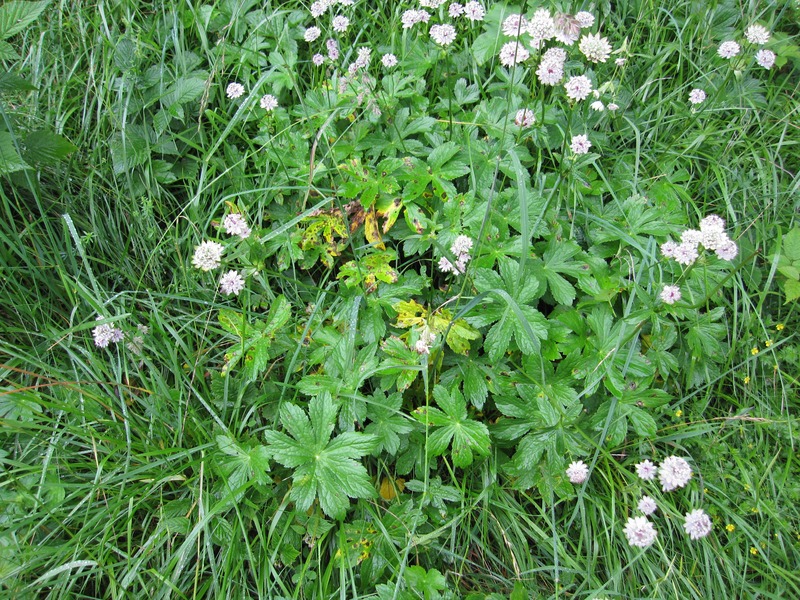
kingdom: Fungi
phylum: Ascomycota
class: Dothideomycetes
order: Mycosphaerellales
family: Mycosphaerellaceae
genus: Ramularia
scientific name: Ramularia oreophila
